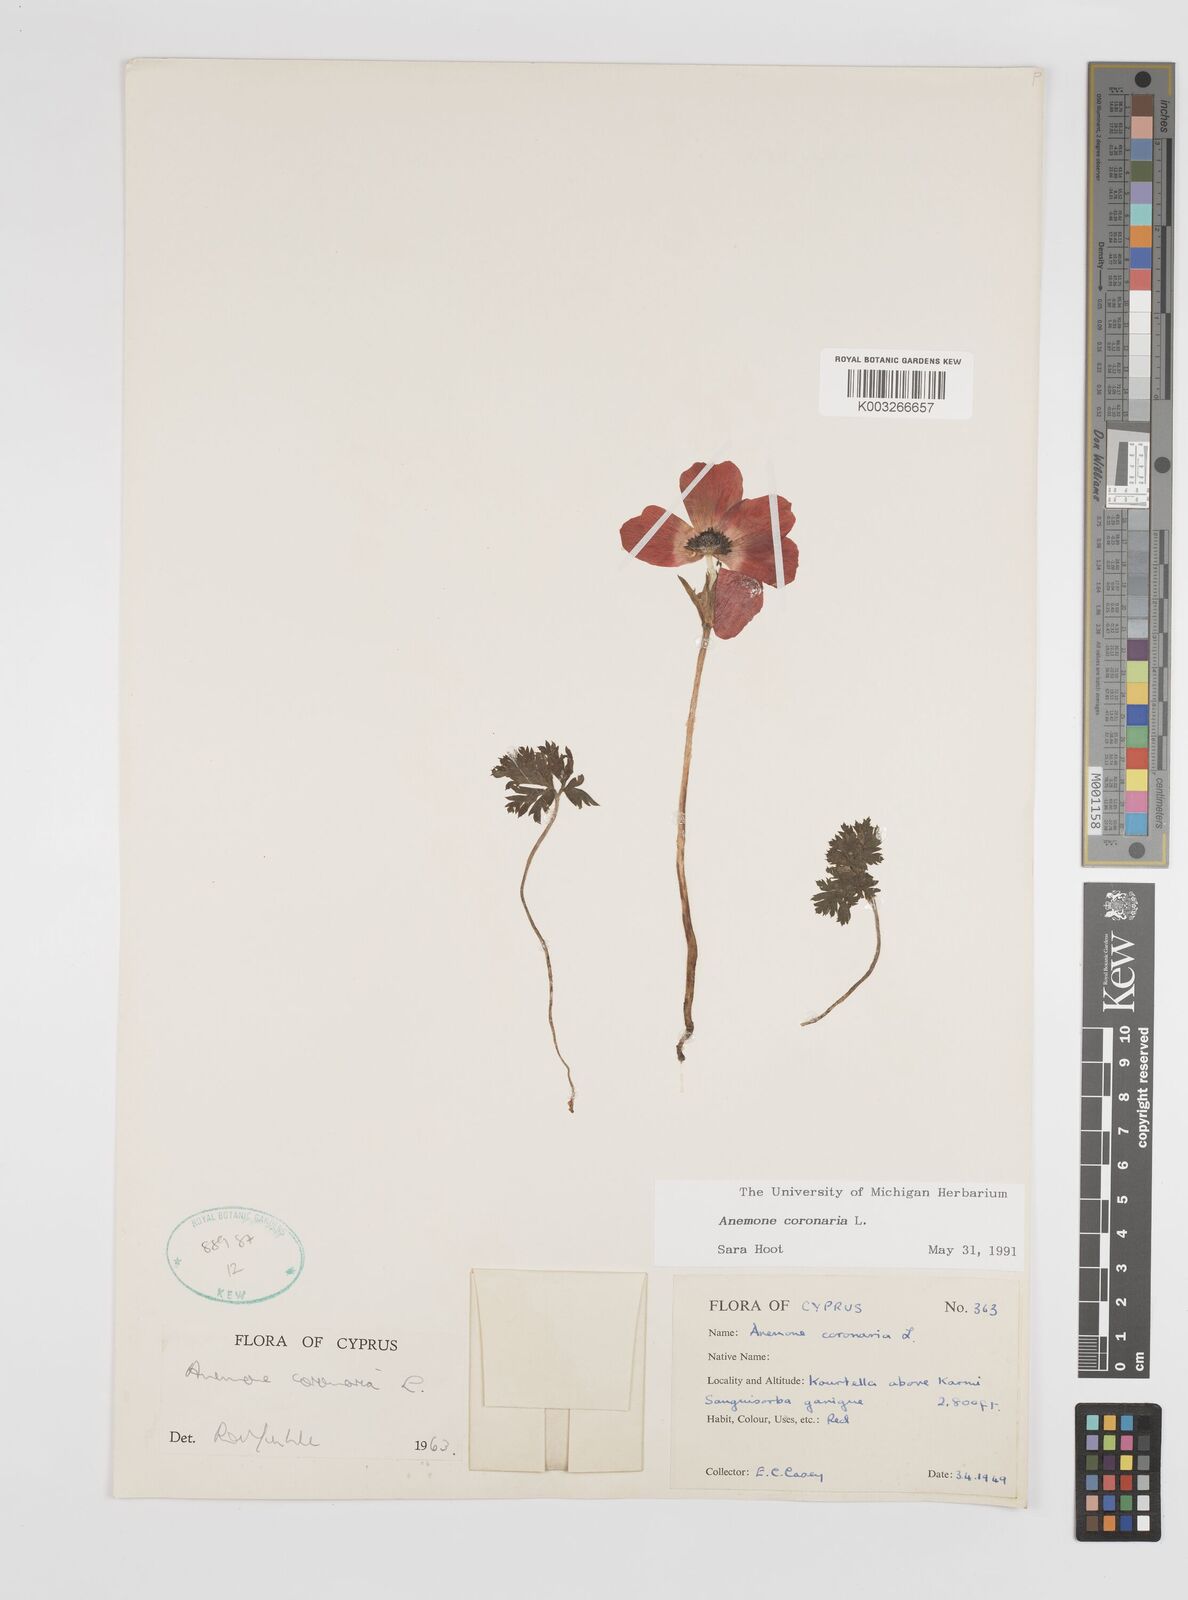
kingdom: Plantae
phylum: Tracheophyta
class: Magnoliopsida
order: Ranunculales
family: Ranunculaceae
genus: Anemone
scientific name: Anemone coronaria
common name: Poppy anemone
